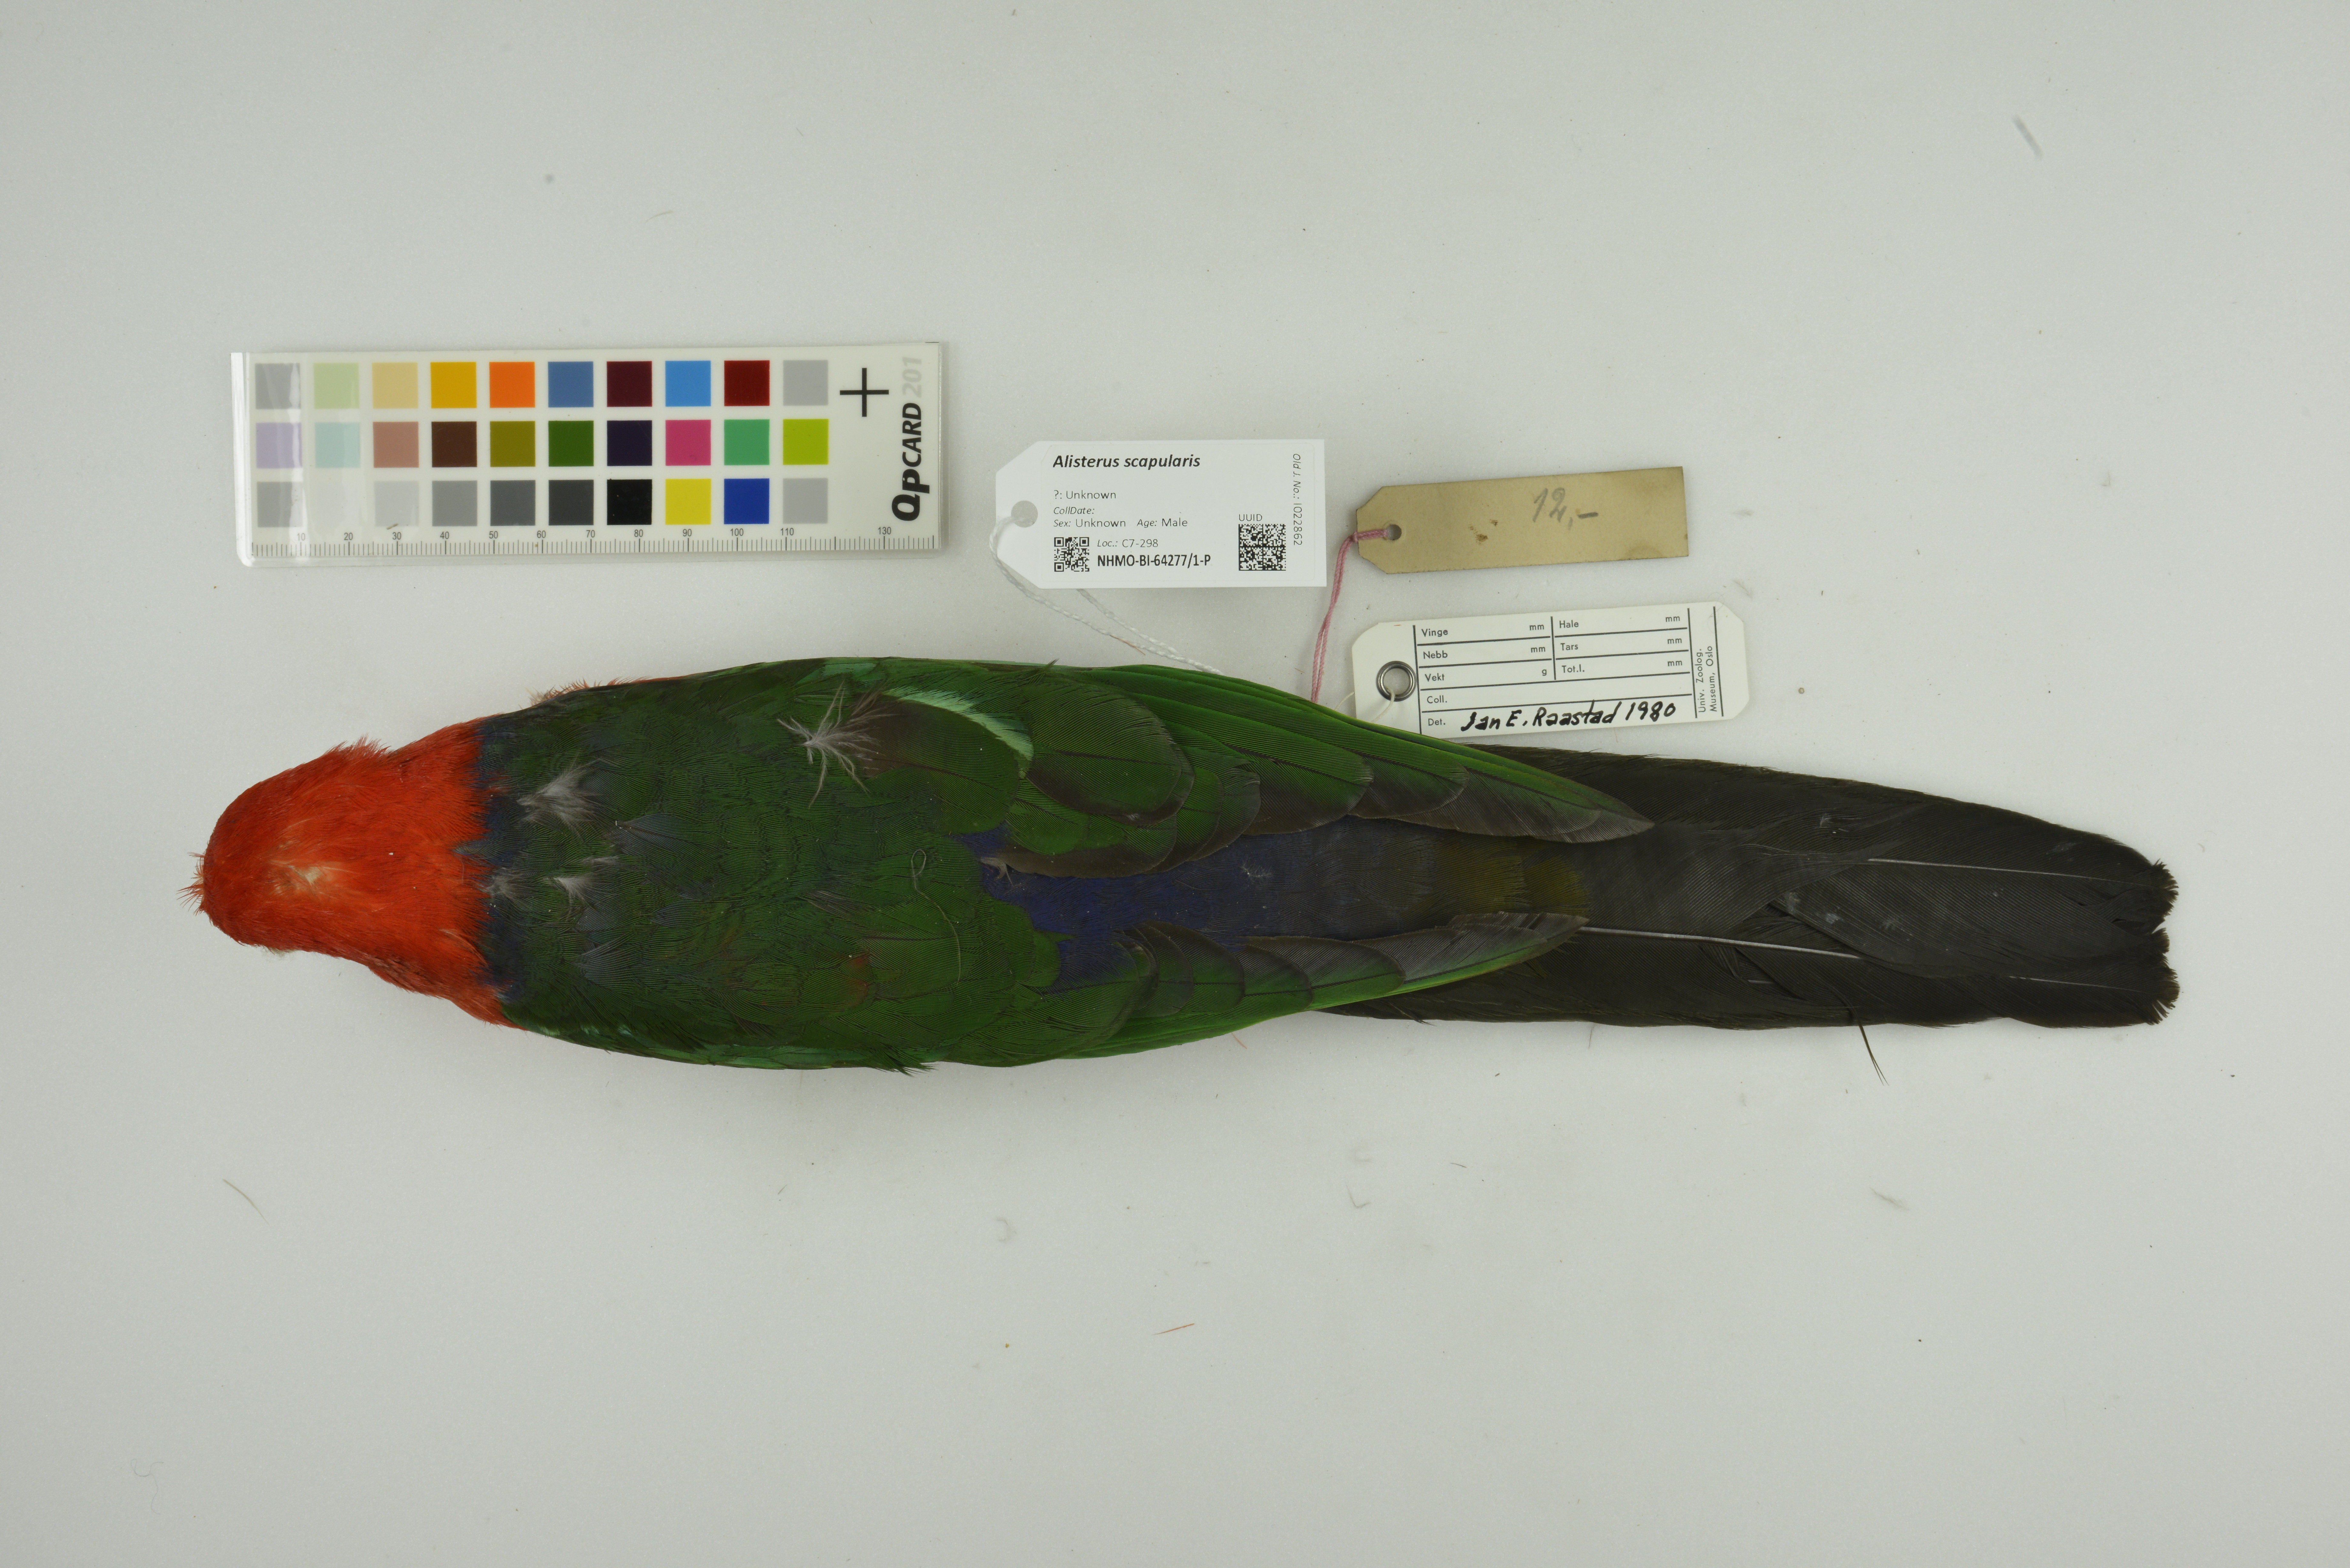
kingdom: Animalia
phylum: Chordata
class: Aves
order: Psittaciformes
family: Psittacidae
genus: Alisterus
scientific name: Alisterus scapularis
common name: Australian king parrot
